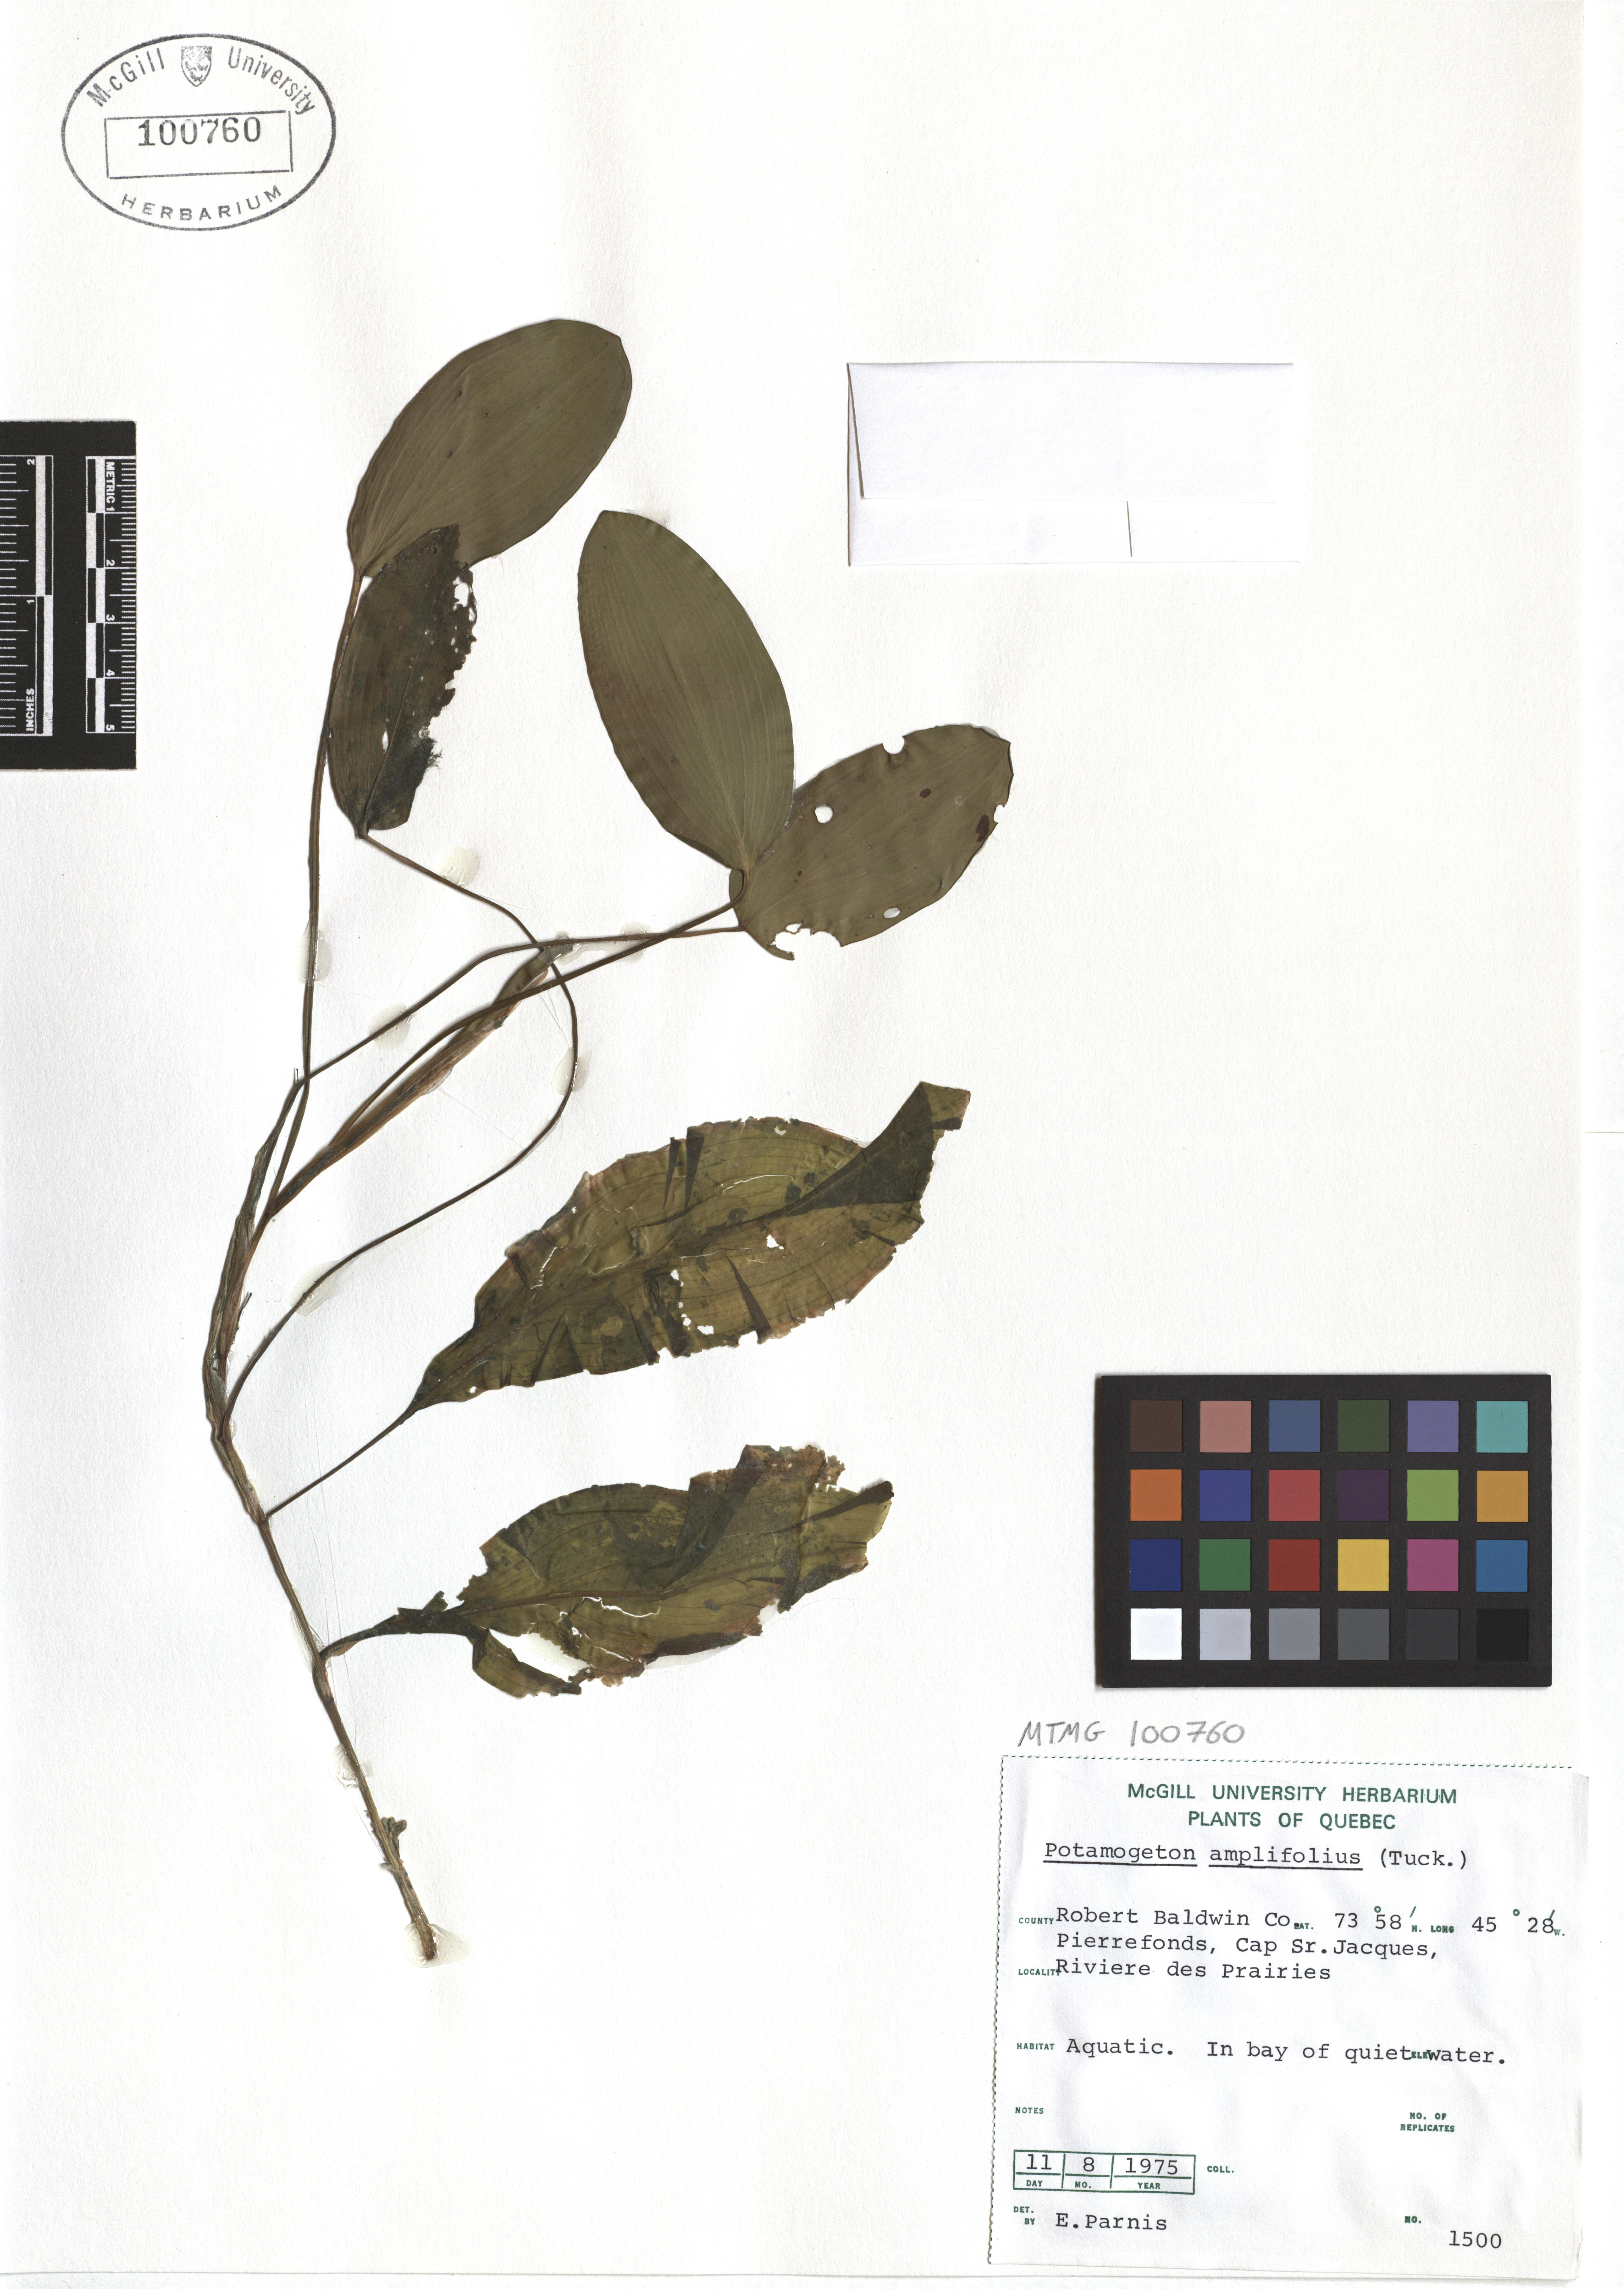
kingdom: Plantae
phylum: Tracheophyta
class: Liliopsida
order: Alismatales
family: Potamogetonaceae
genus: Potamogeton
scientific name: Potamogeton amplifolius
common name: Broad-leaved pondweed
